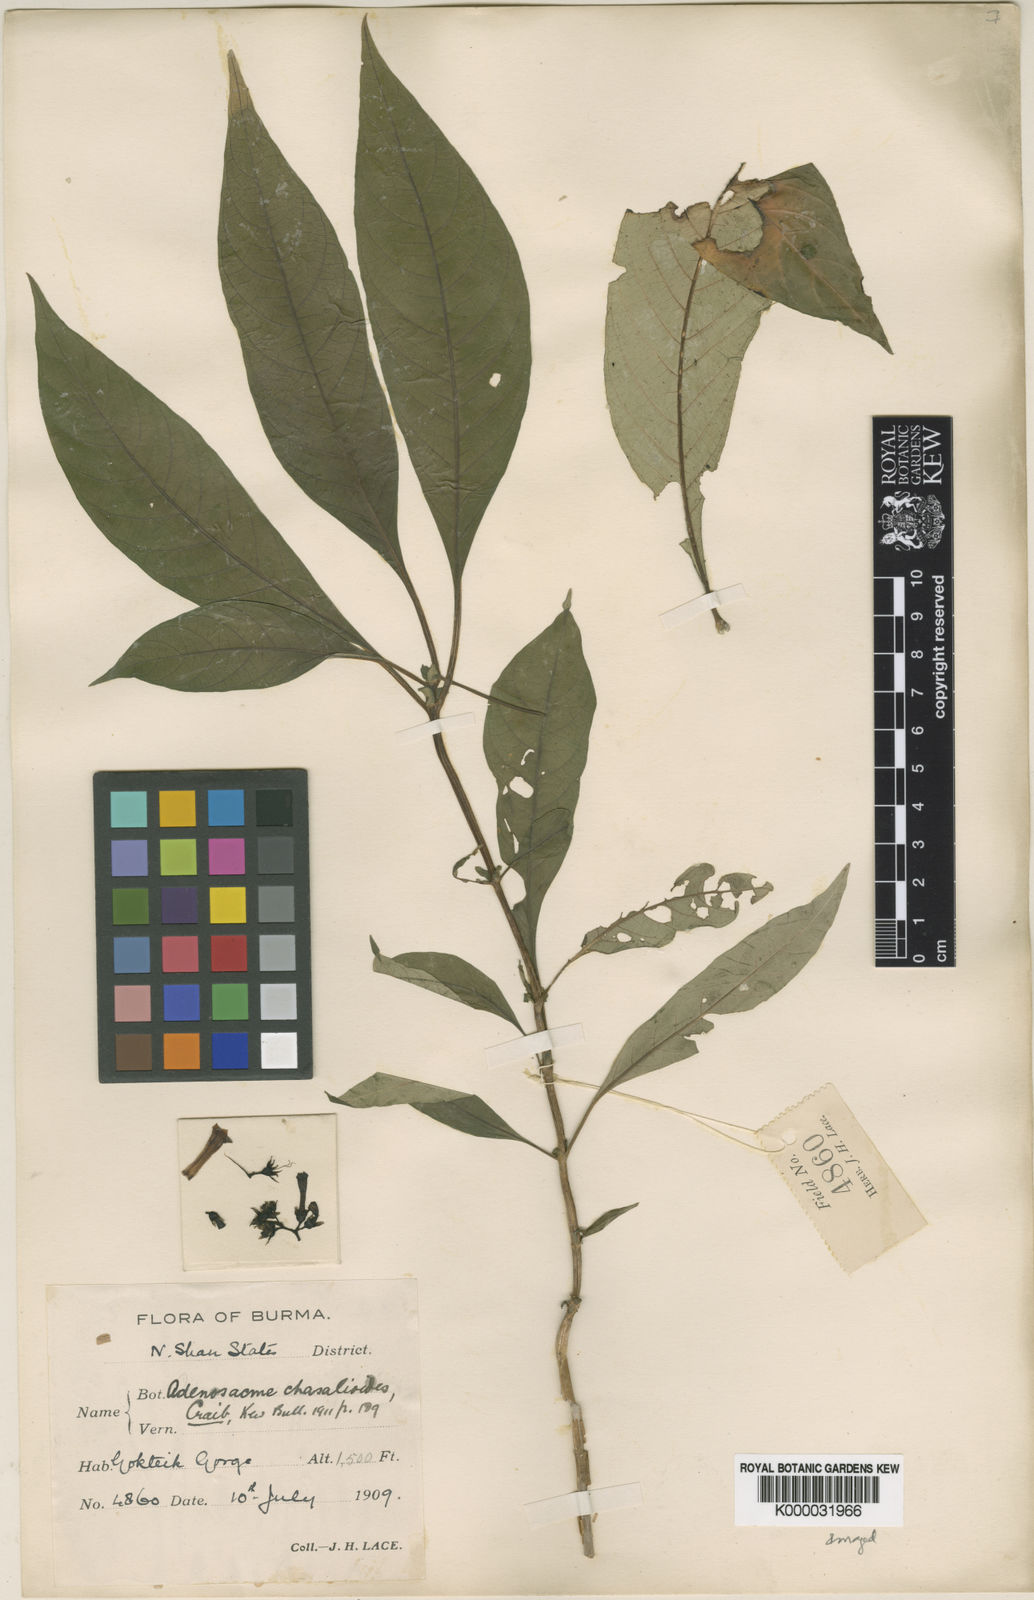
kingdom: Plantae
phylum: Tracheophyta
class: Magnoliopsida
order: Gentianales
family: Rubiaceae
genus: Mycetia
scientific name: Mycetia chasalioides
